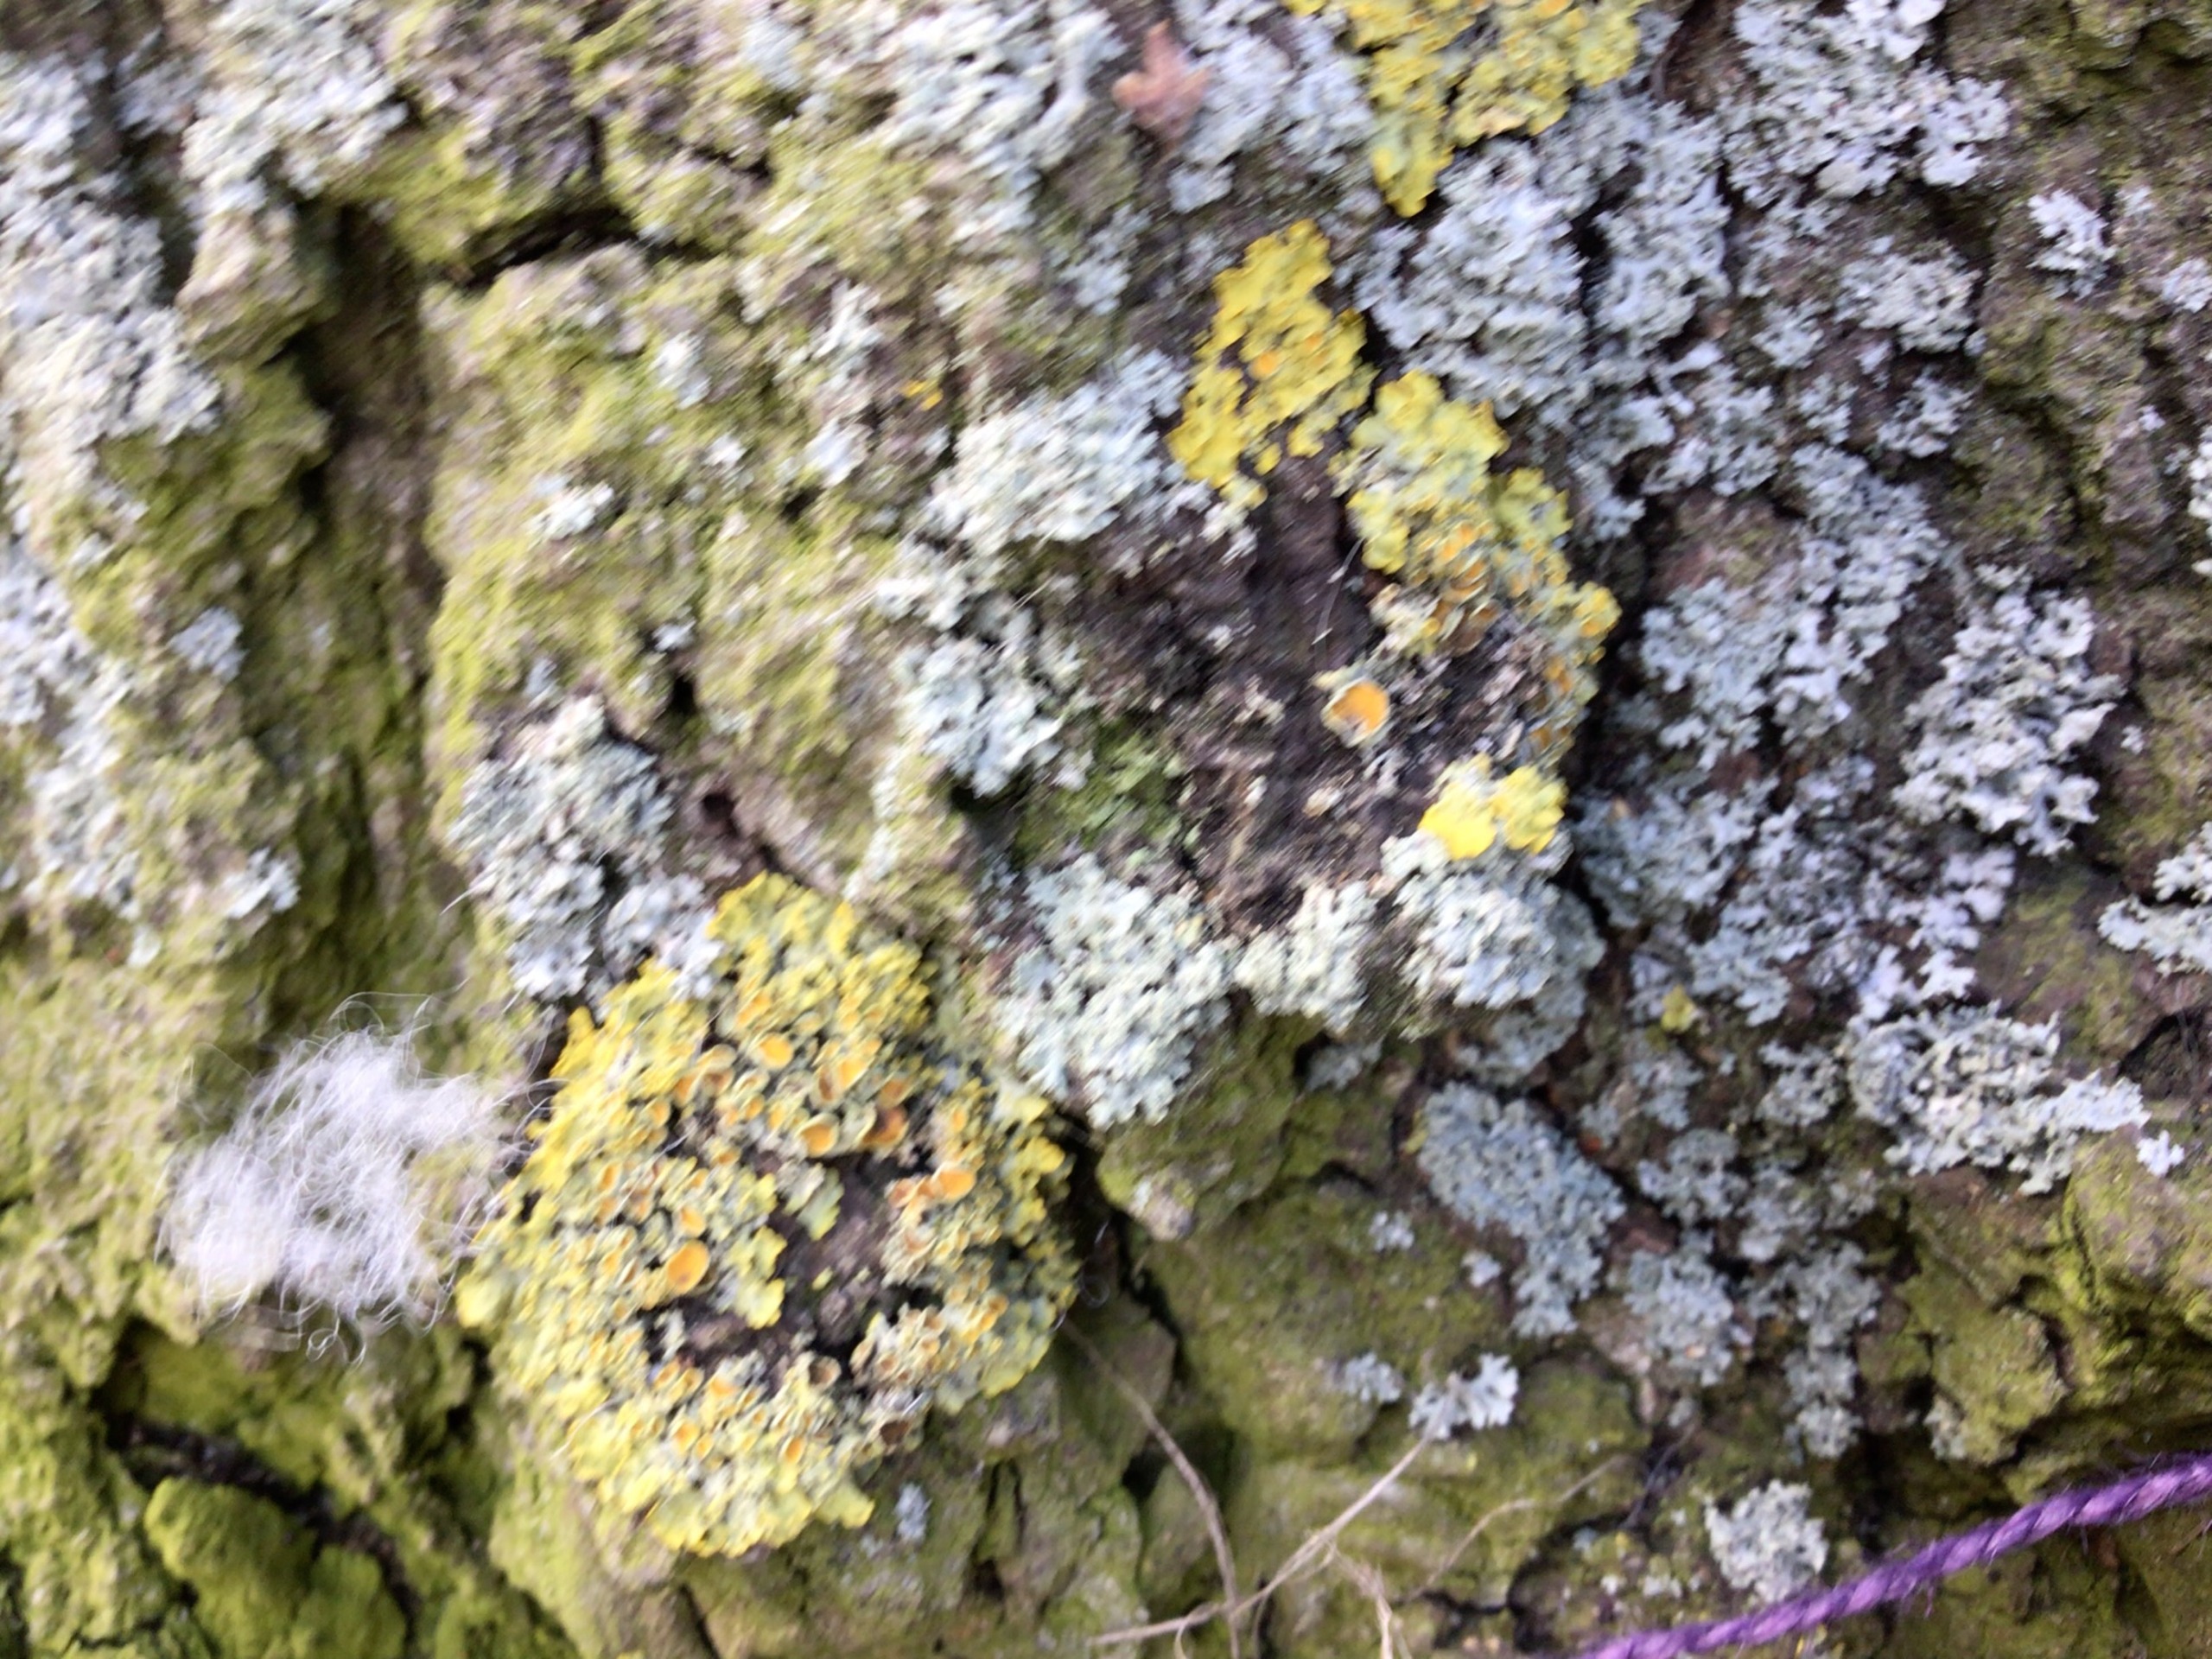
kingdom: Fungi
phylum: Ascomycota
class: Lecanoromycetes
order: Teloschistales
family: Teloschistaceae
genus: Xanthoria
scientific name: Xanthoria parietina
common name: Almindelig væggelav
